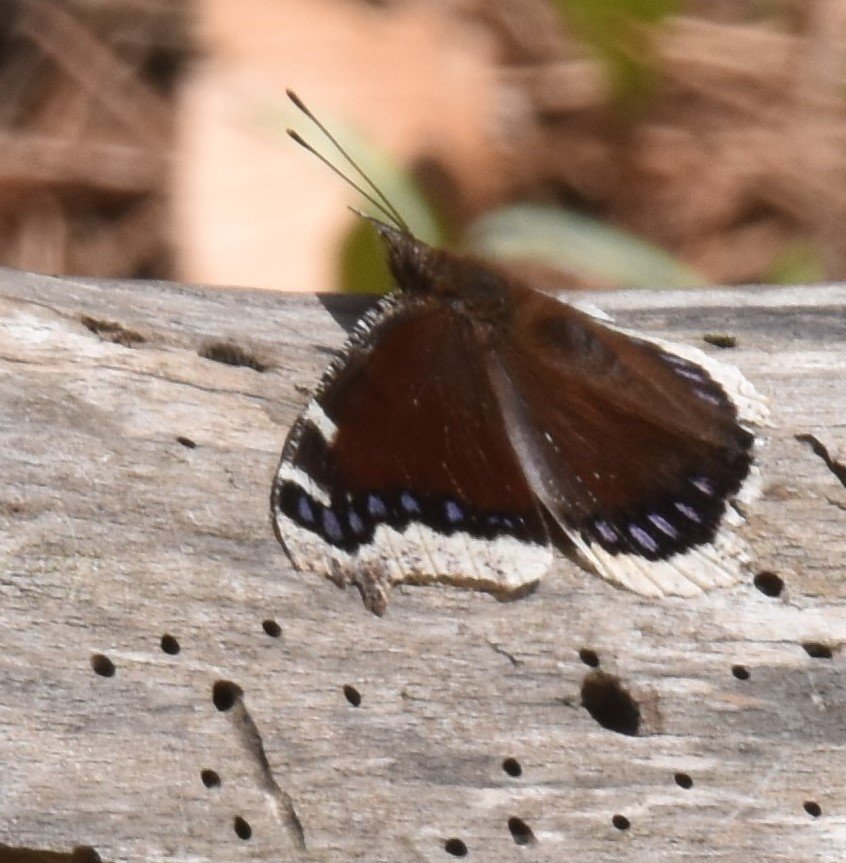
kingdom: Animalia
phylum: Arthropoda
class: Insecta
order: Lepidoptera
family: Nymphalidae
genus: Nymphalis
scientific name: Nymphalis antiopa
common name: Mourning Cloak
